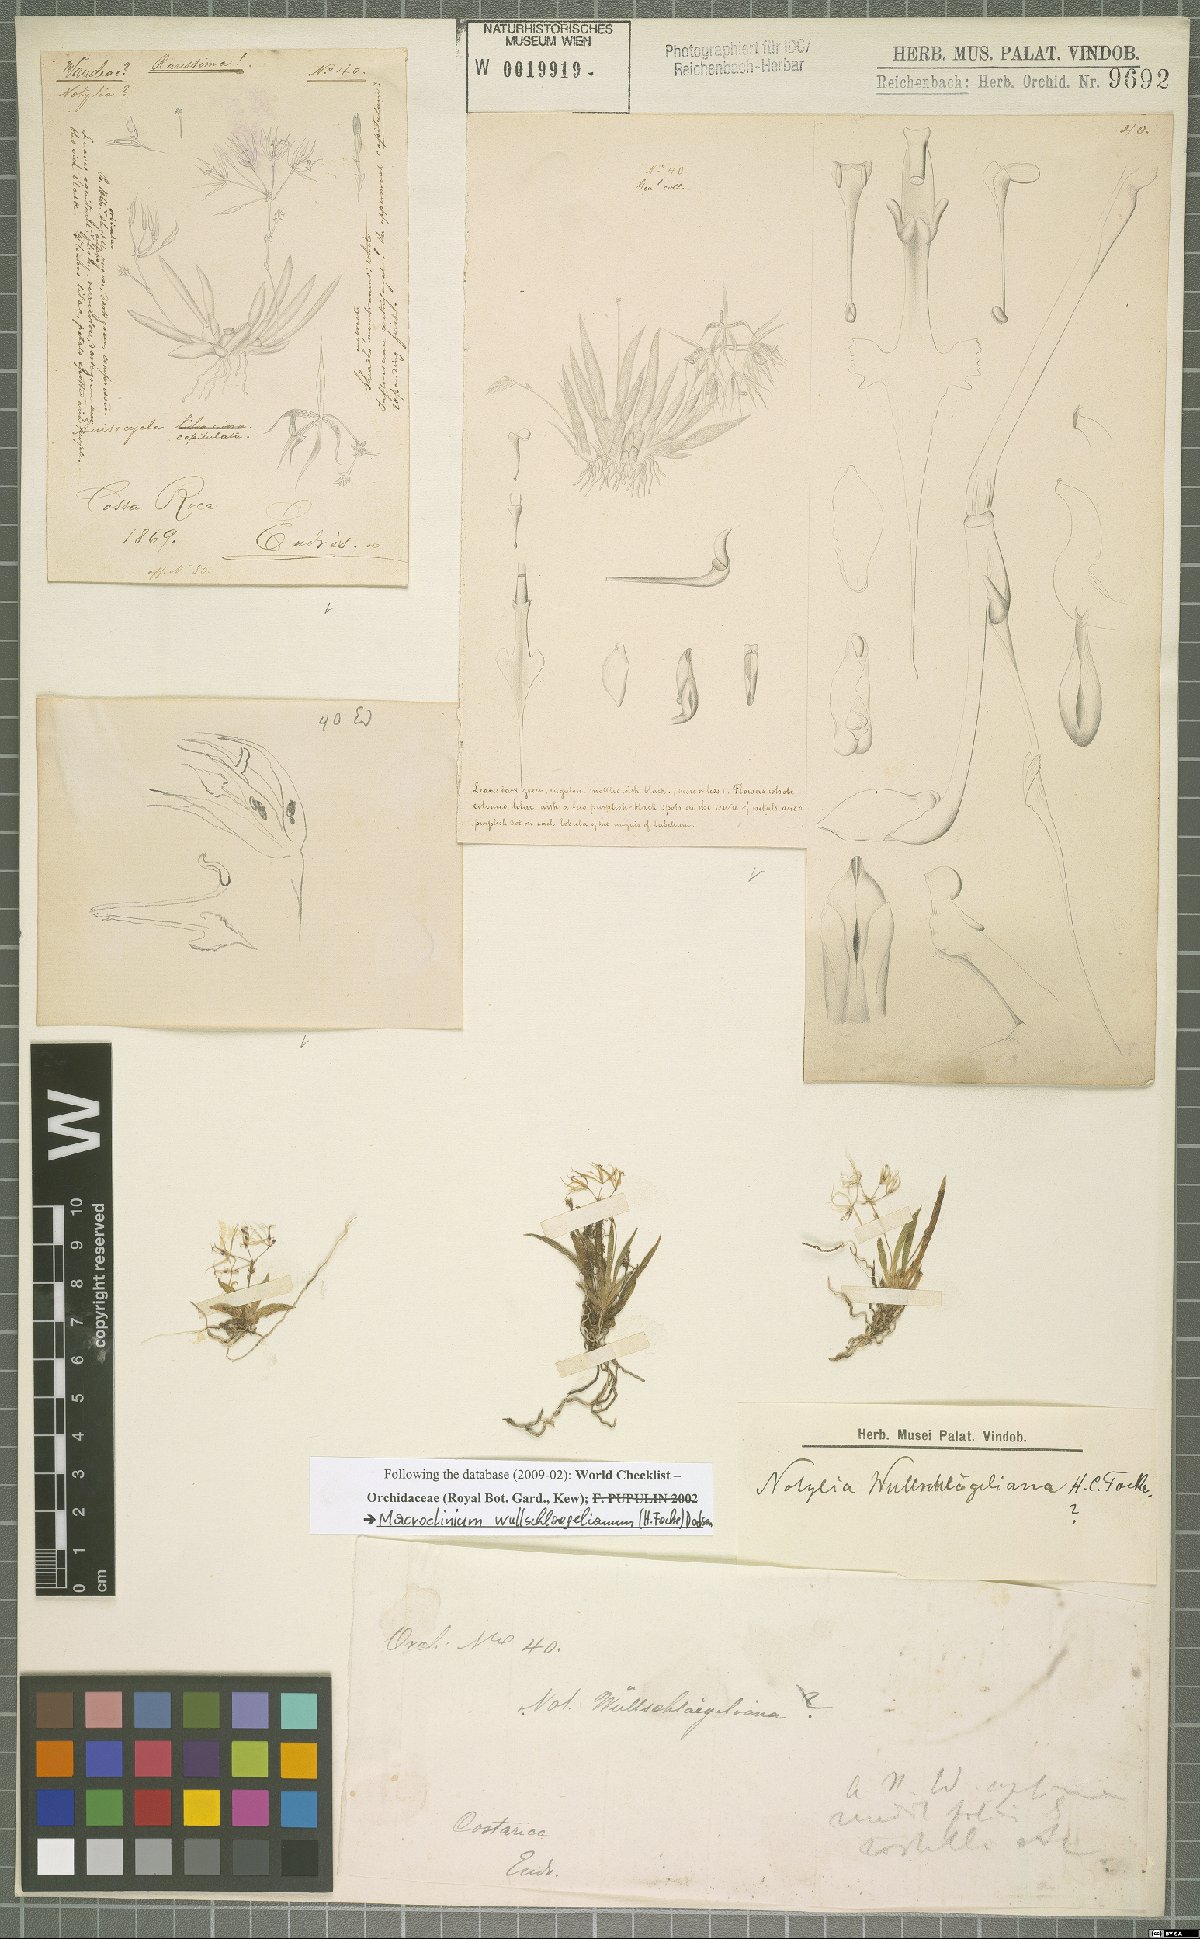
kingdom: Plantae
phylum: Tracheophyta
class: Liliopsida
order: Asparagales
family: Orchidaceae
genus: Macroclinium
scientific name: Macroclinium wullschlaegelianum
